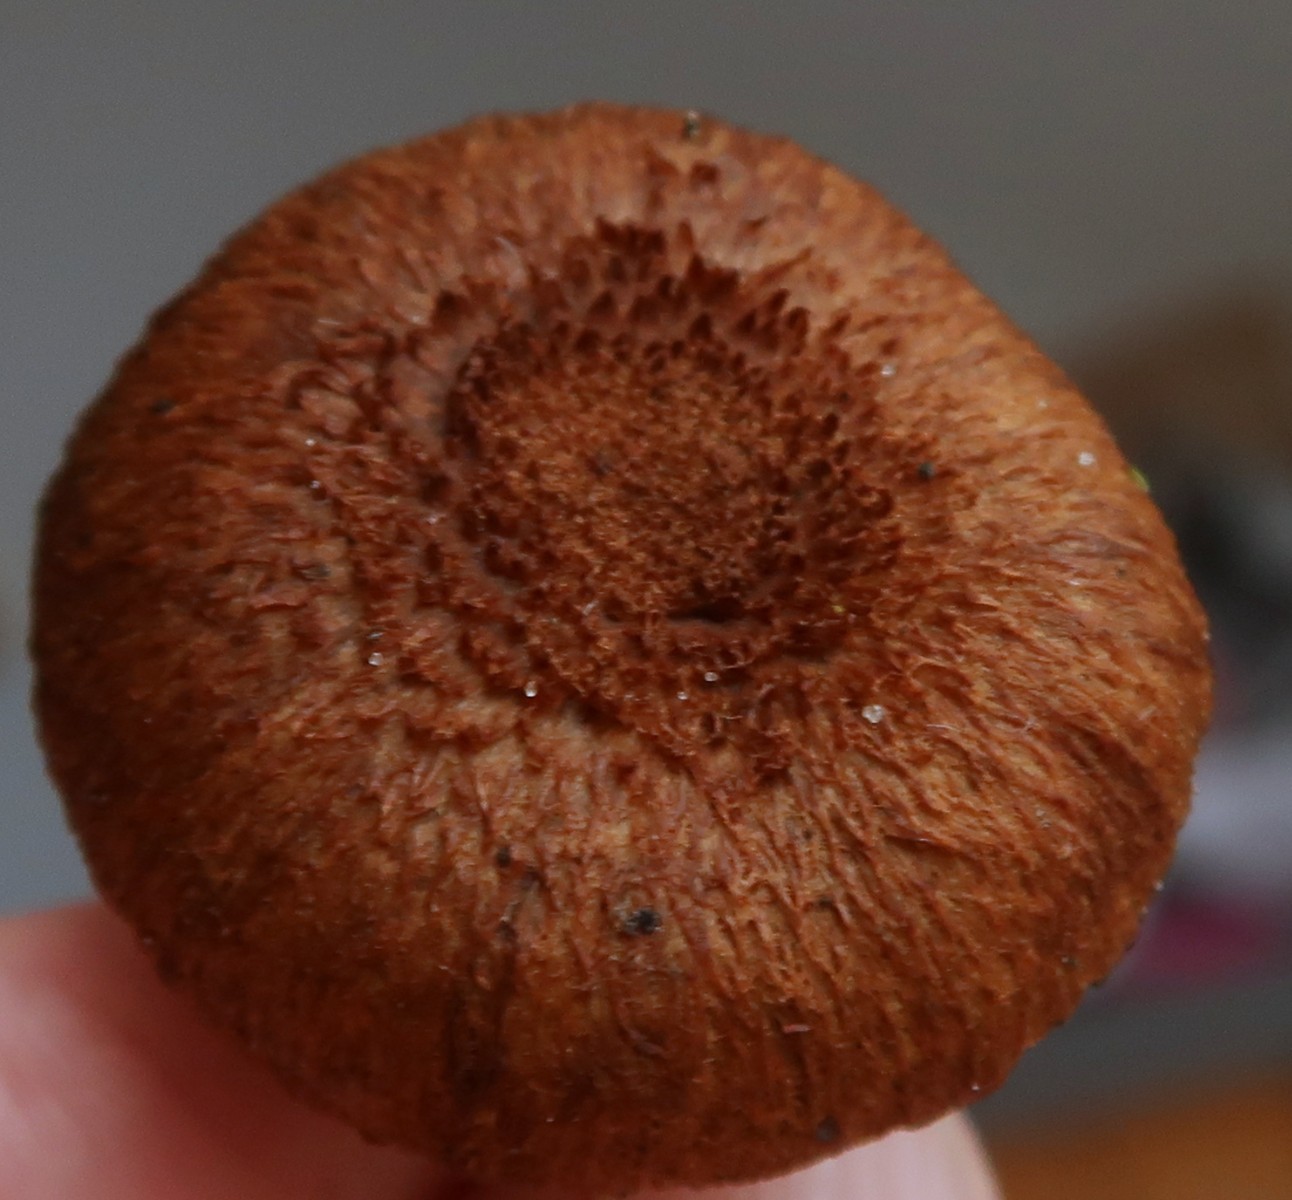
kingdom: Fungi
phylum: Basidiomycota
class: Agaricomycetes
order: Agaricales
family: Inocybaceae
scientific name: Inocybaceae
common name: trævlhatfamilien
